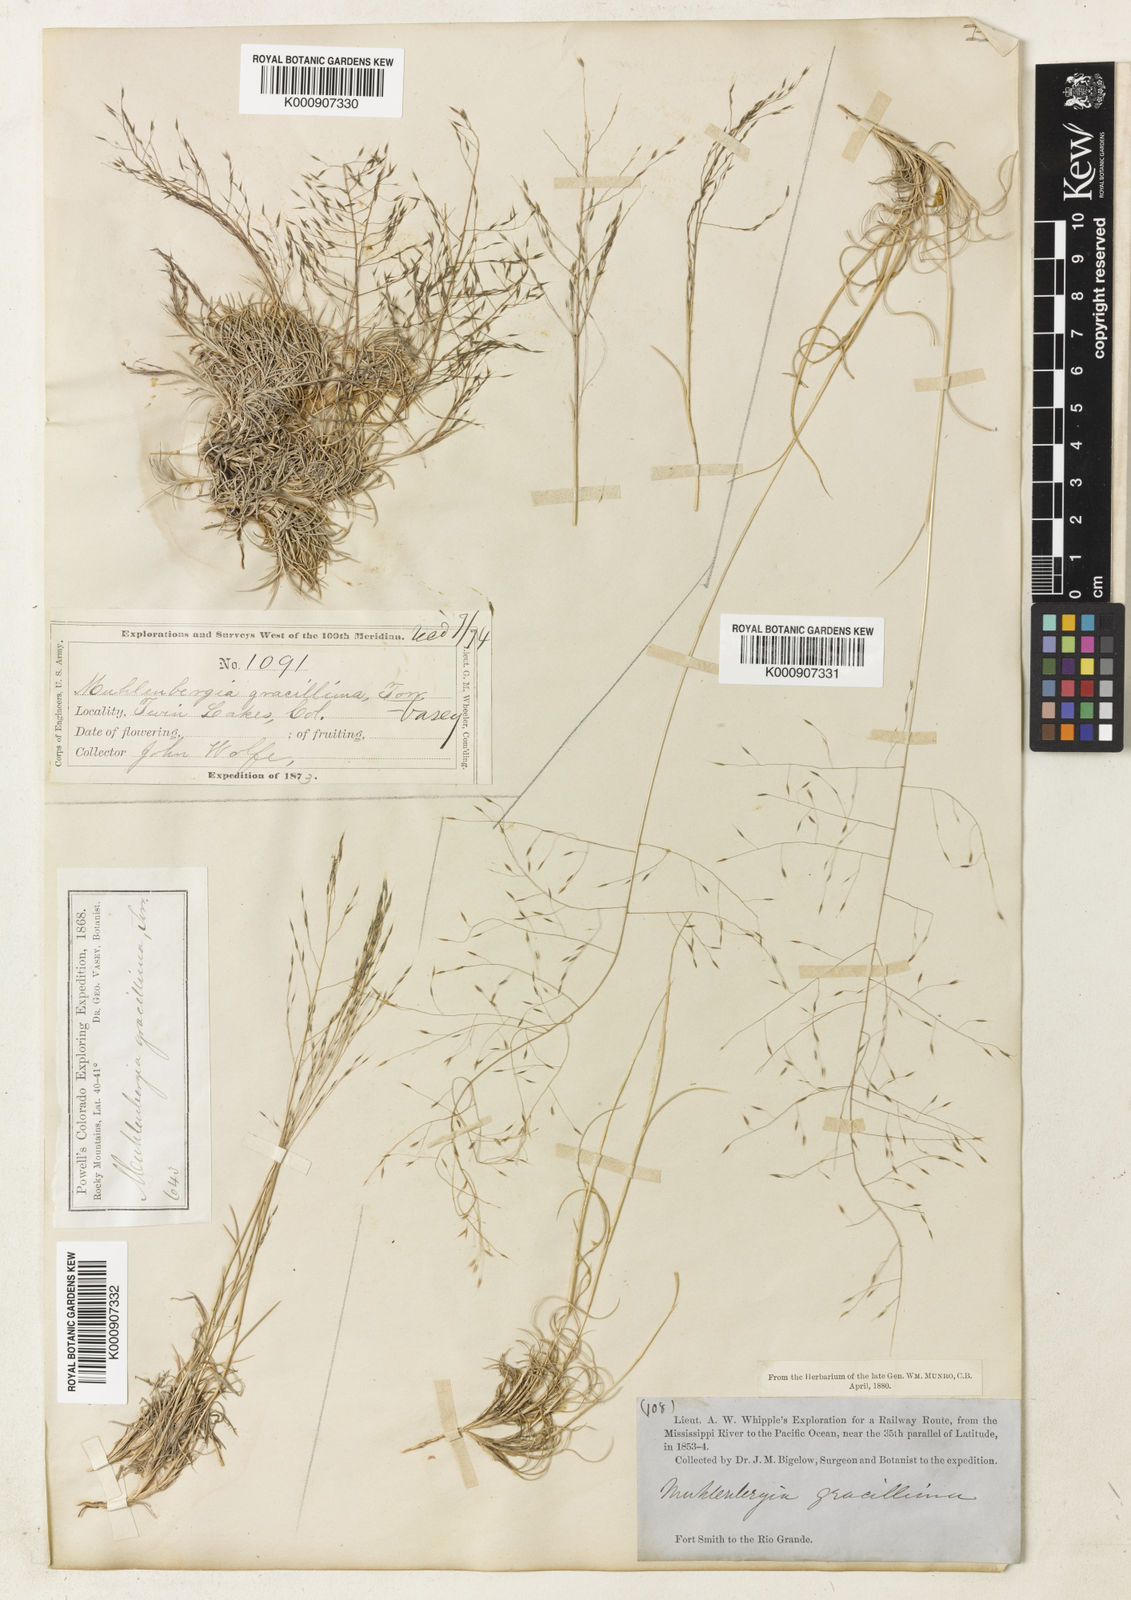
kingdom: Plantae
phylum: Tracheophyta
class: Liliopsida
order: Poales
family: Poaceae
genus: Muhlenbergia
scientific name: Muhlenbergia torreyi
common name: Ring grass
